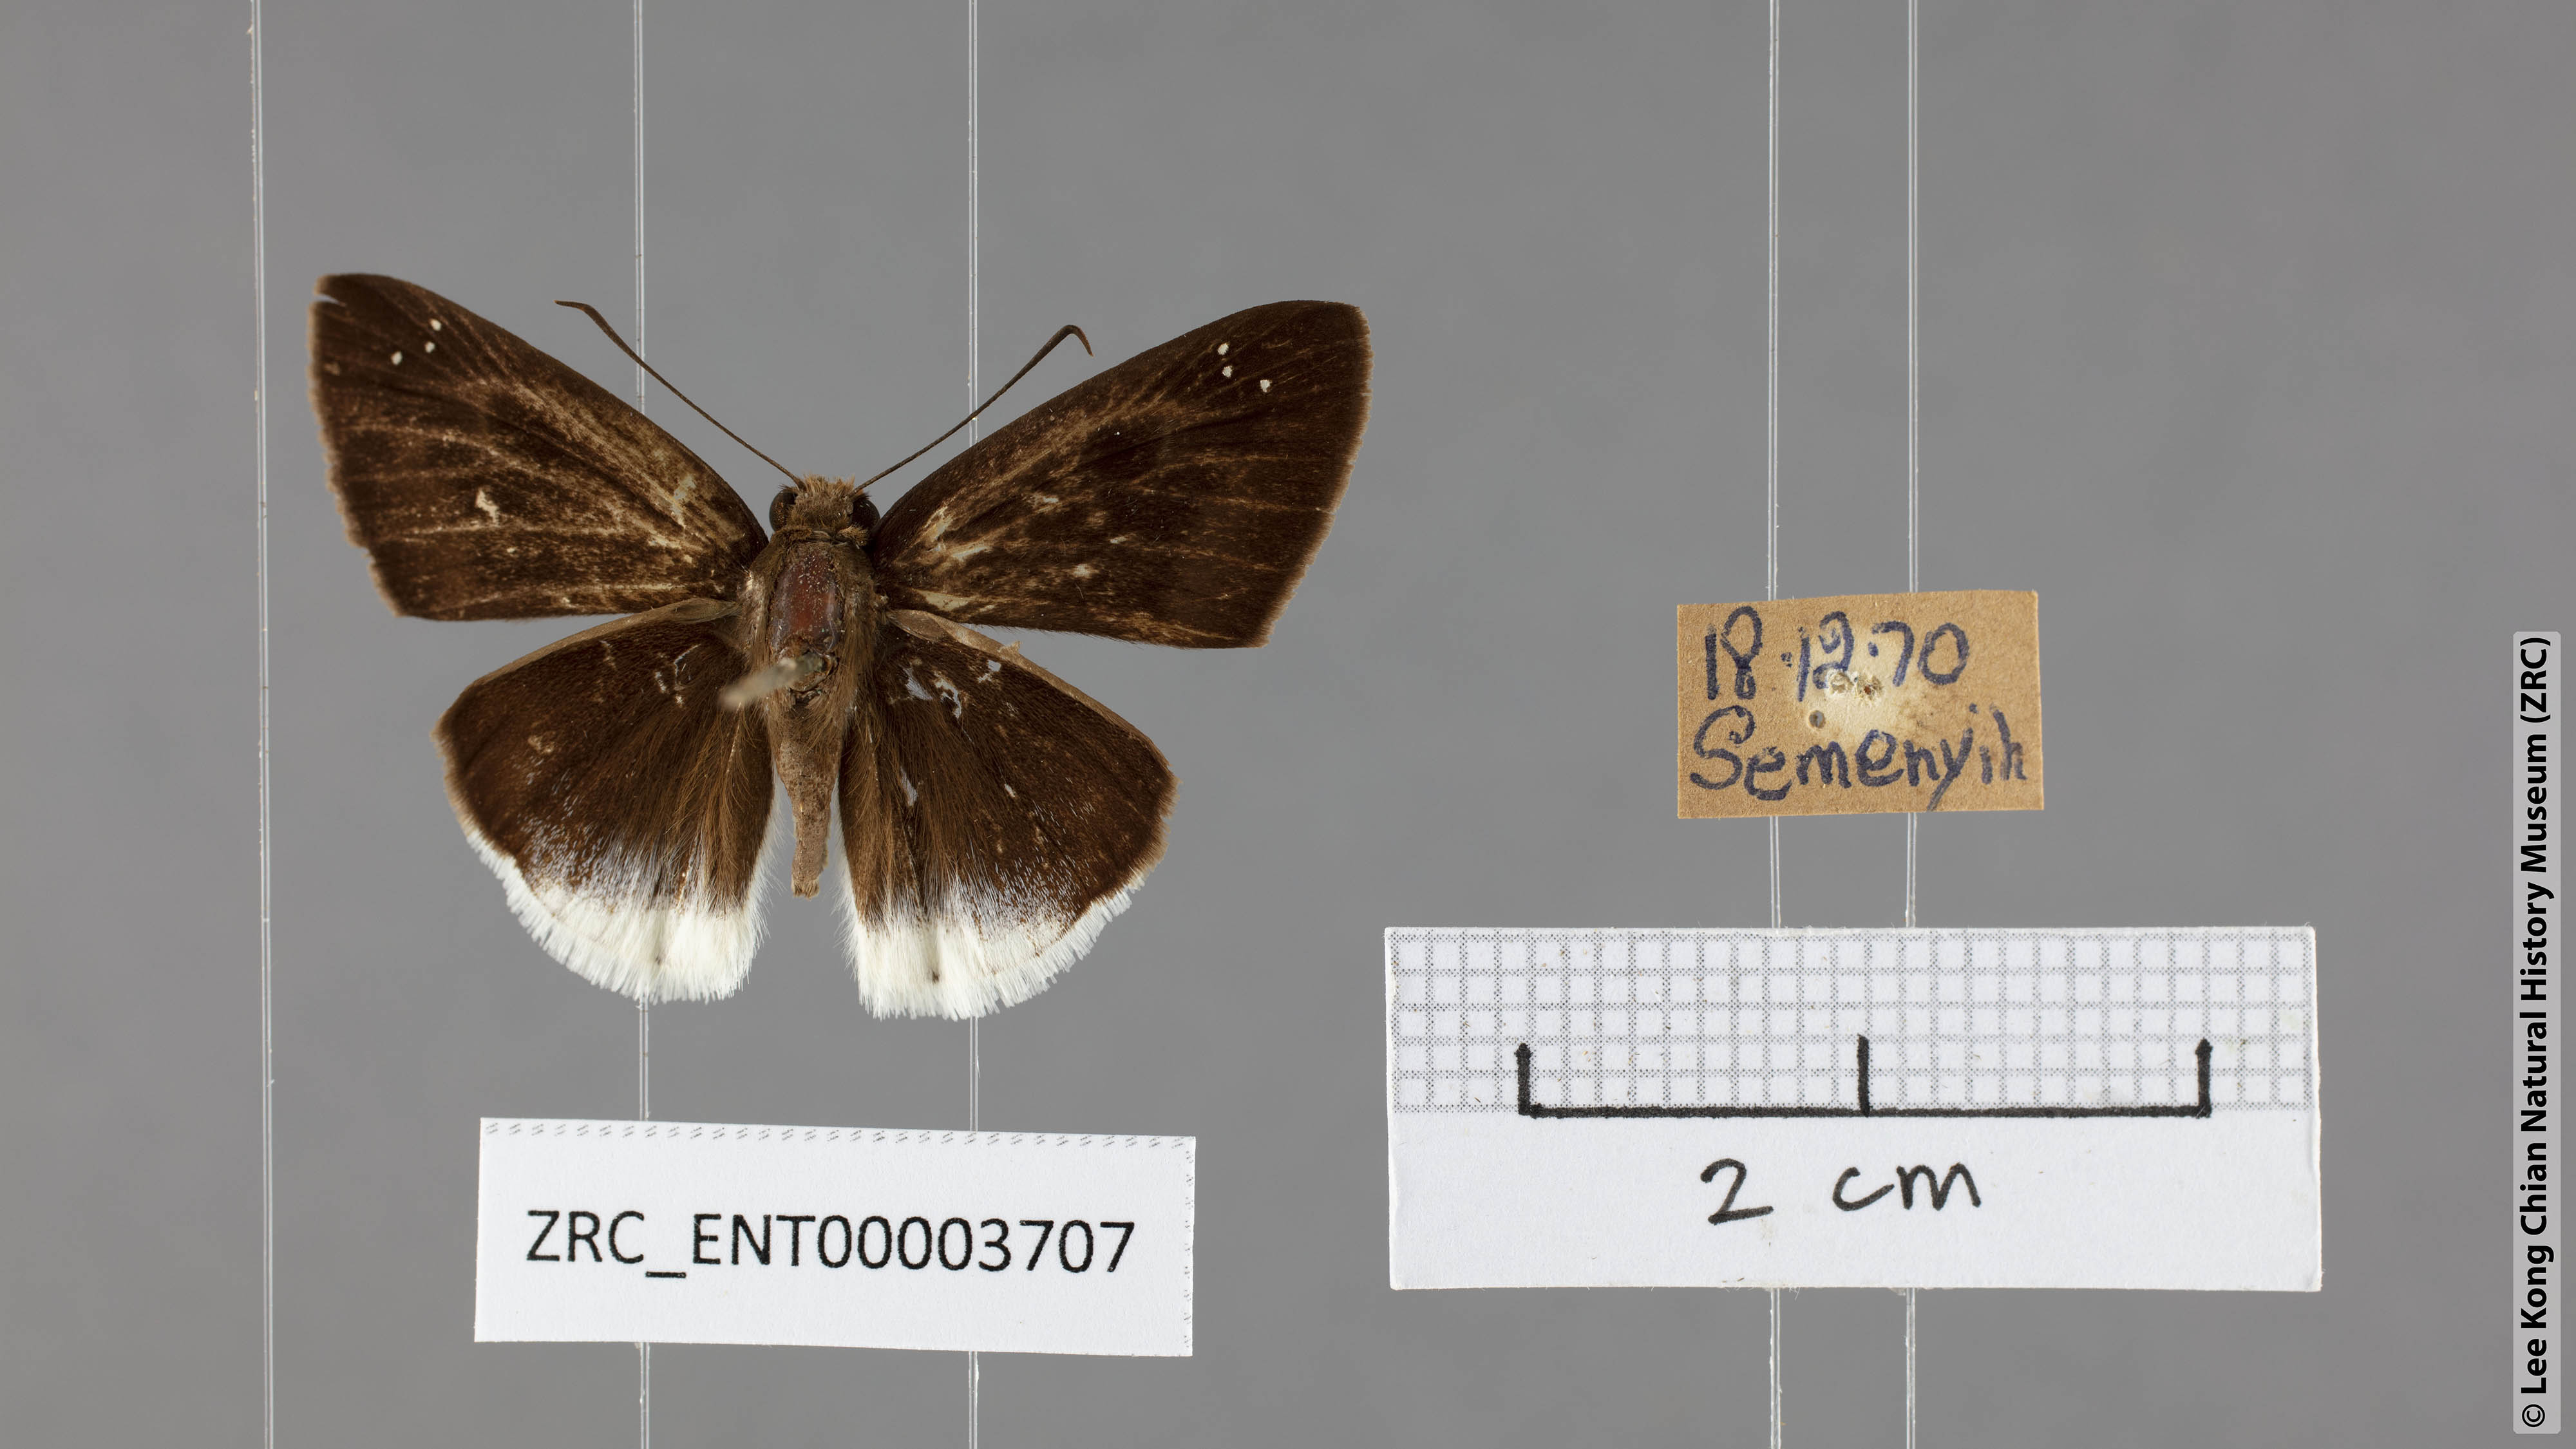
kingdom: Animalia
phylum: Arthropoda
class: Insecta
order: Lepidoptera
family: Hesperiidae
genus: Tagiades
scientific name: Tagiades lavata
